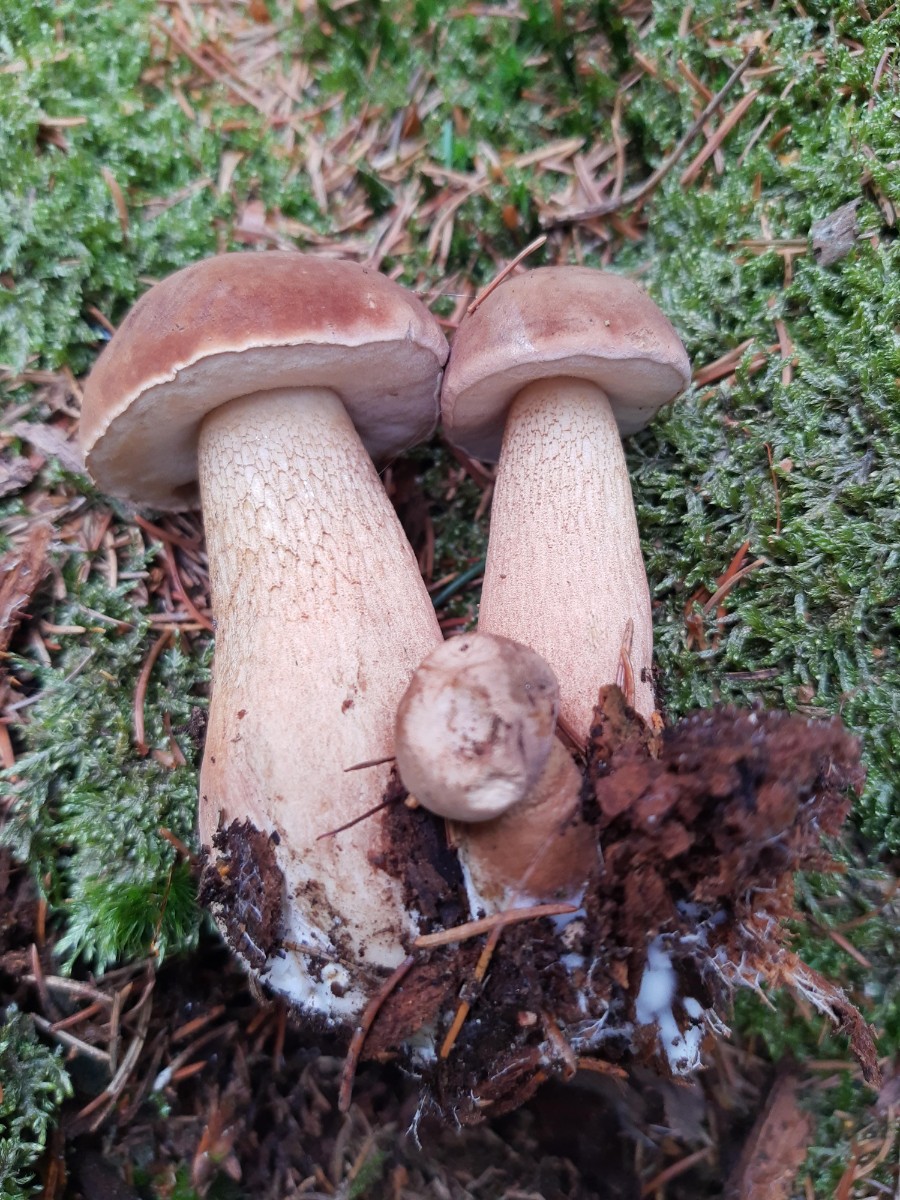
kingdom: Fungi
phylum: Basidiomycota
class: Agaricomycetes
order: Boletales
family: Boletaceae
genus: Tylopilus
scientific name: Tylopilus felleus
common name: galderørhat
